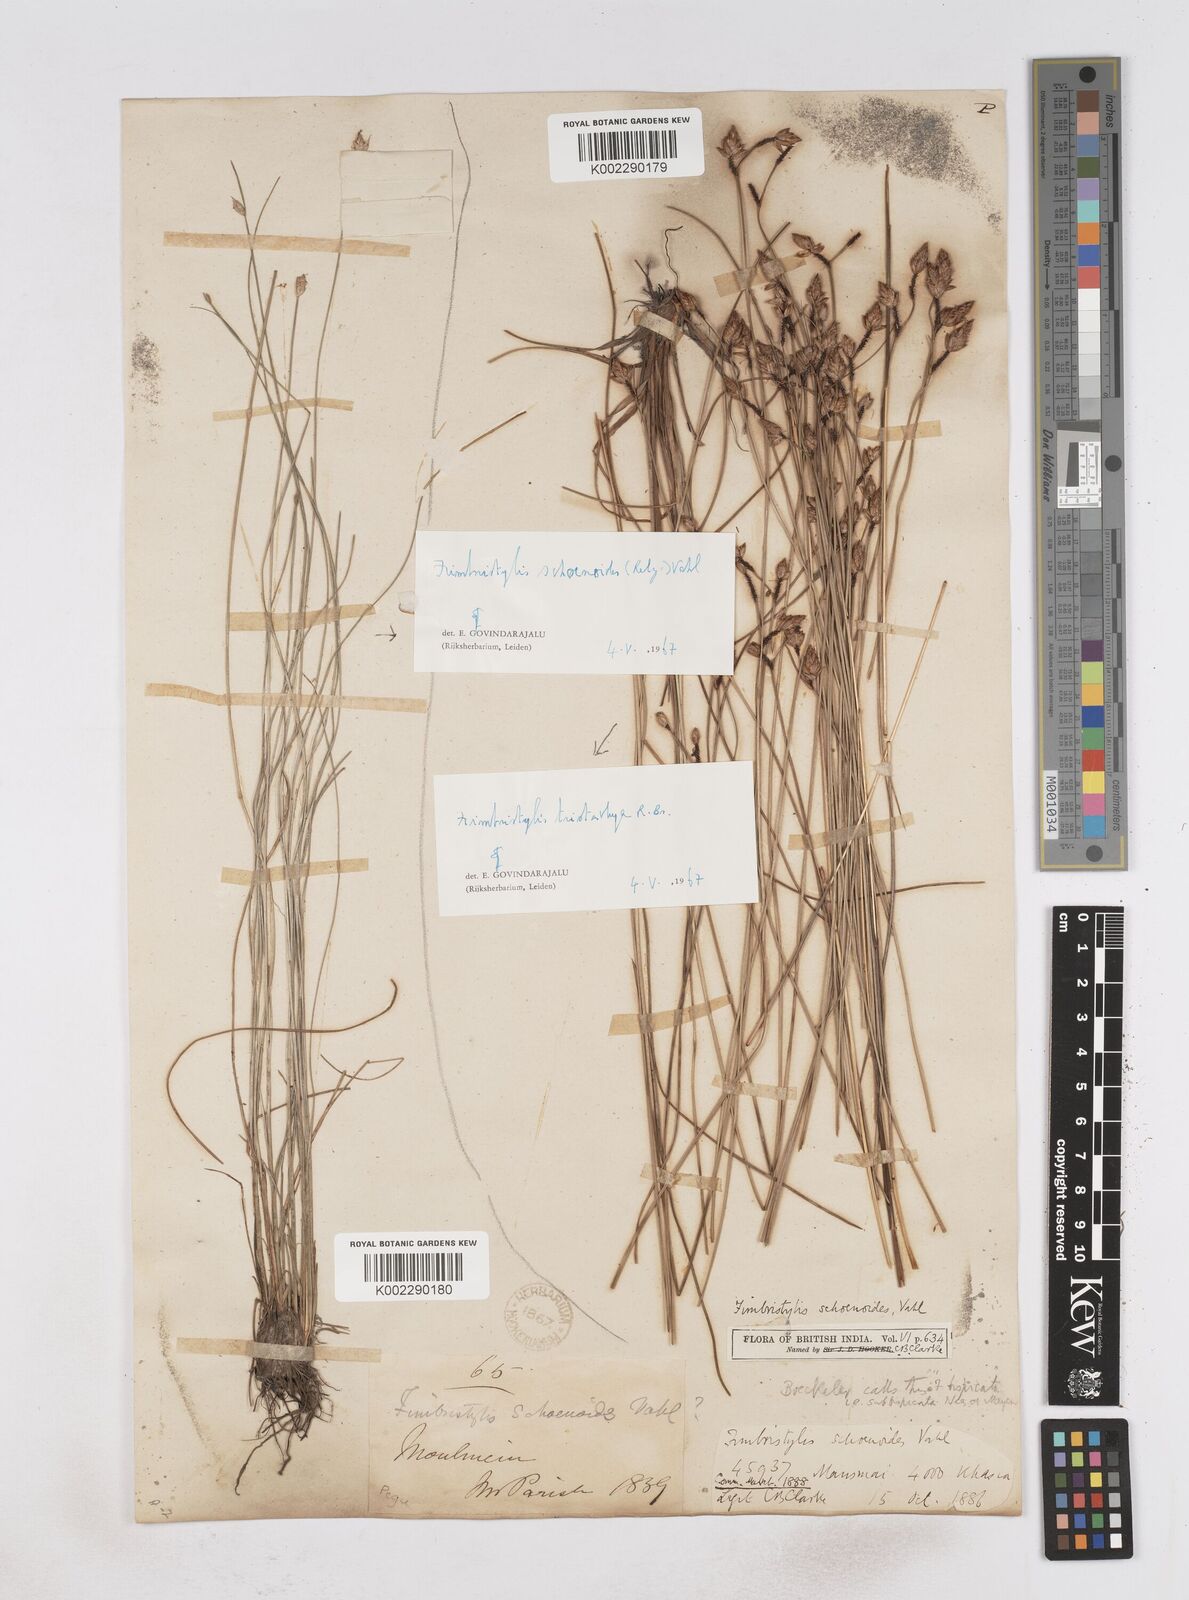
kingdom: Plantae
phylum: Tracheophyta
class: Liliopsida
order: Poales
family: Cyperaceae
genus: Fimbristylis
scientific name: Fimbristylis tristachya
